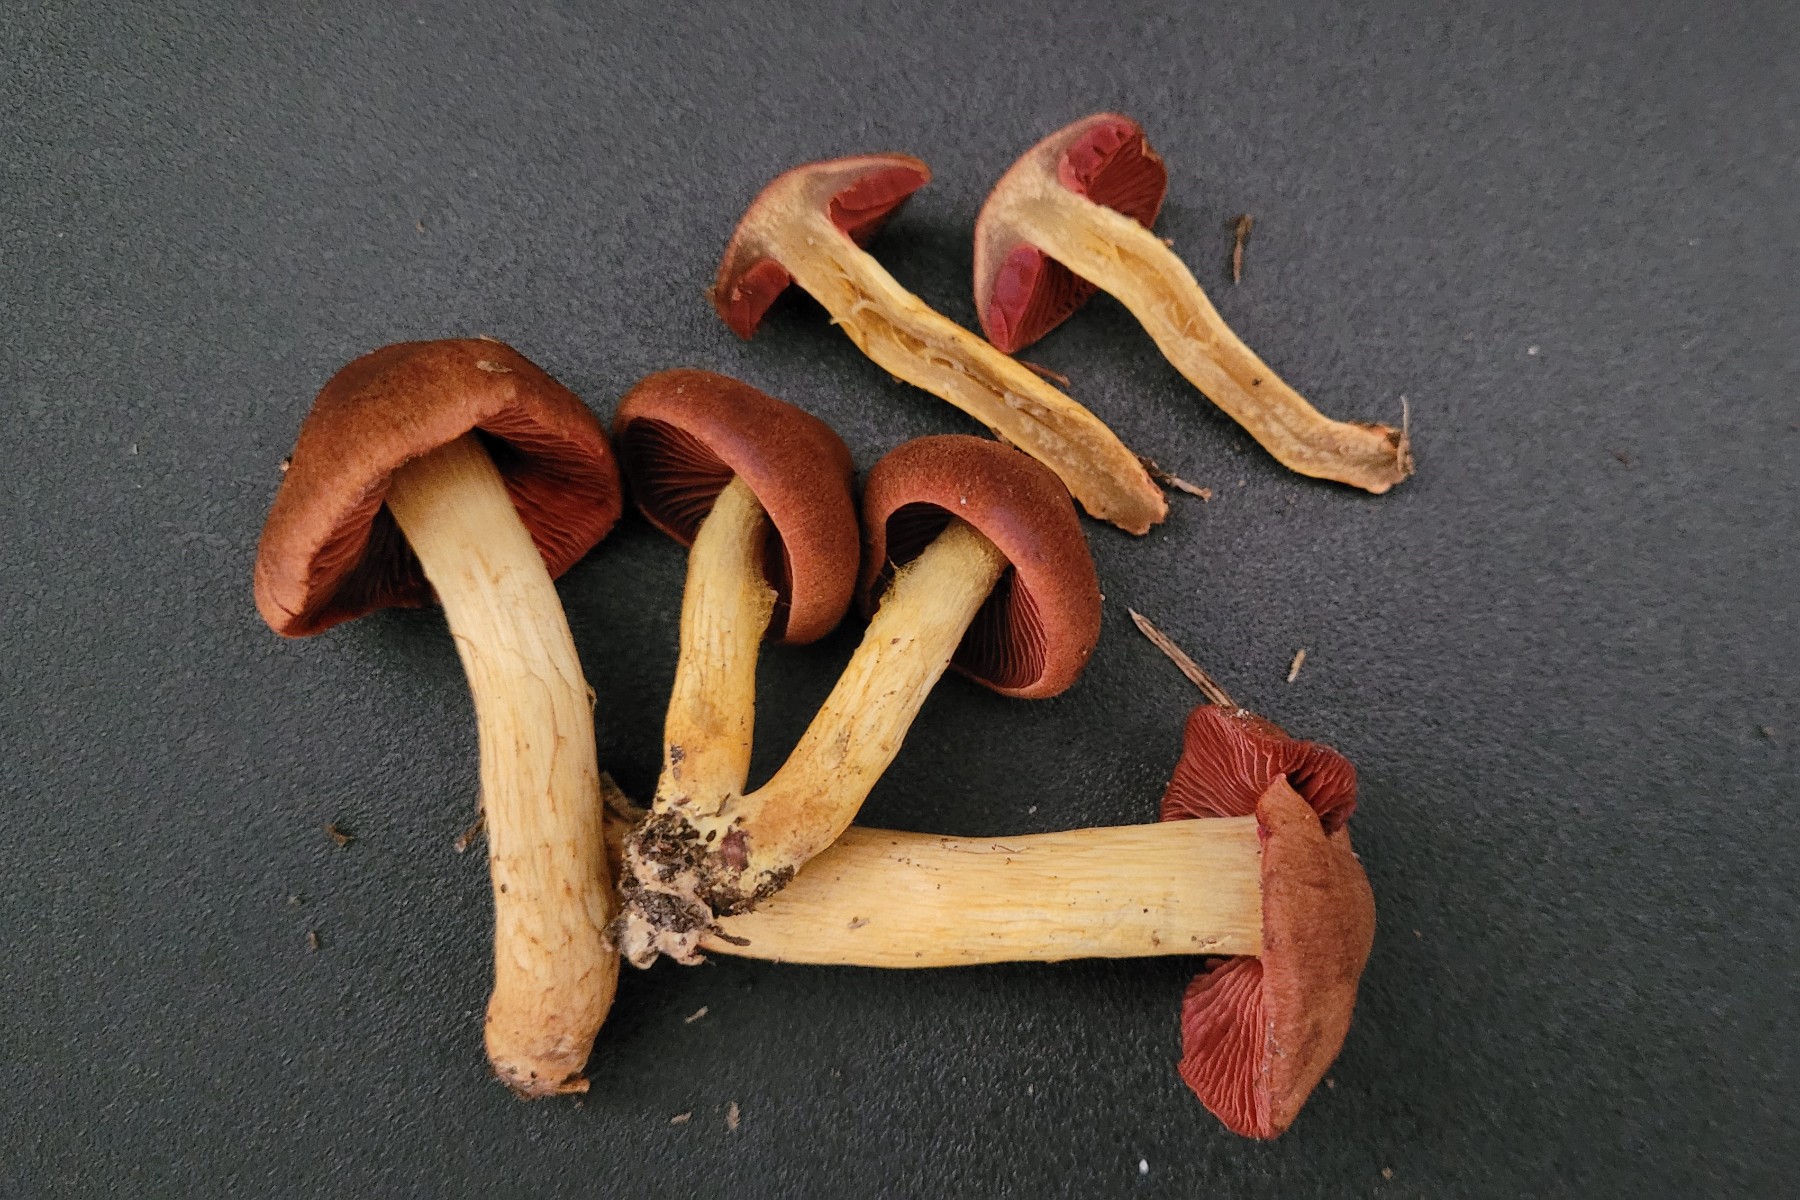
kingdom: Fungi
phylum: Basidiomycota
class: Agaricomycetes
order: Agaricales
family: Cortinariaceae
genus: Cortinarius
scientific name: Cortinarius ominosus
